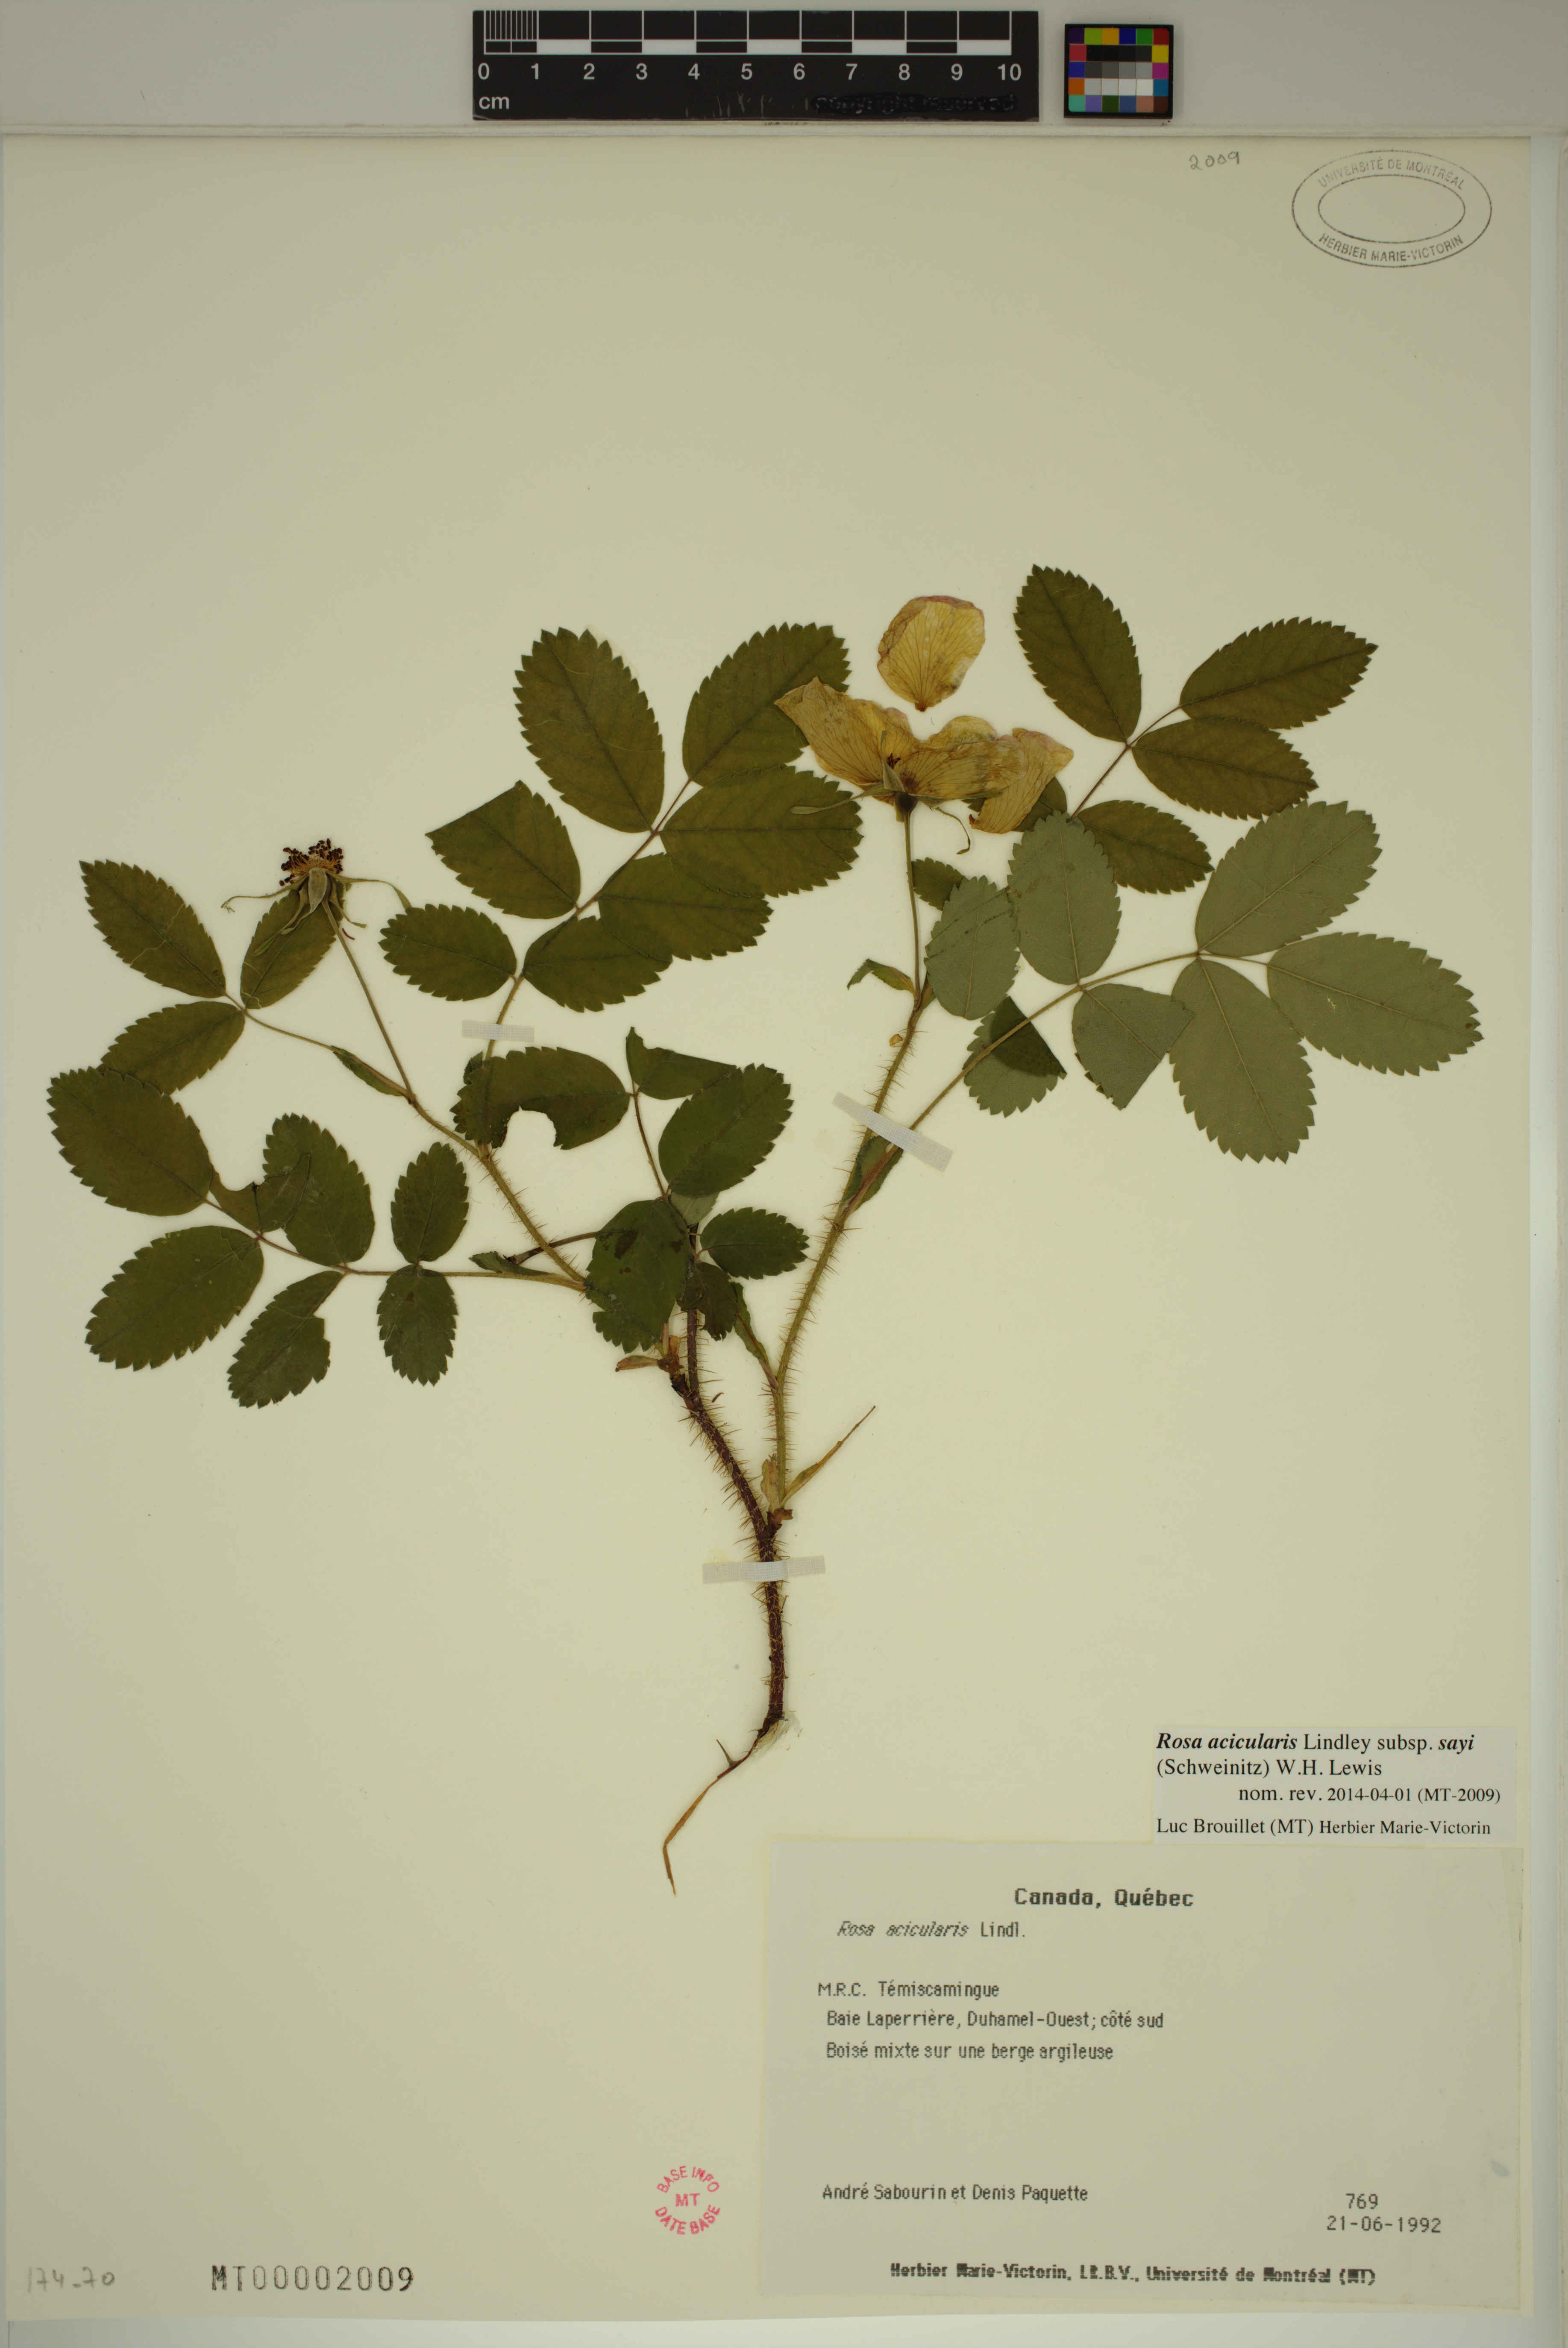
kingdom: Plantae
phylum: Tracheophyta
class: Magnoliopsida
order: Rosales
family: Rosaceae
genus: Rosa
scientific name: Rosa acicularis
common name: Prickly rose
